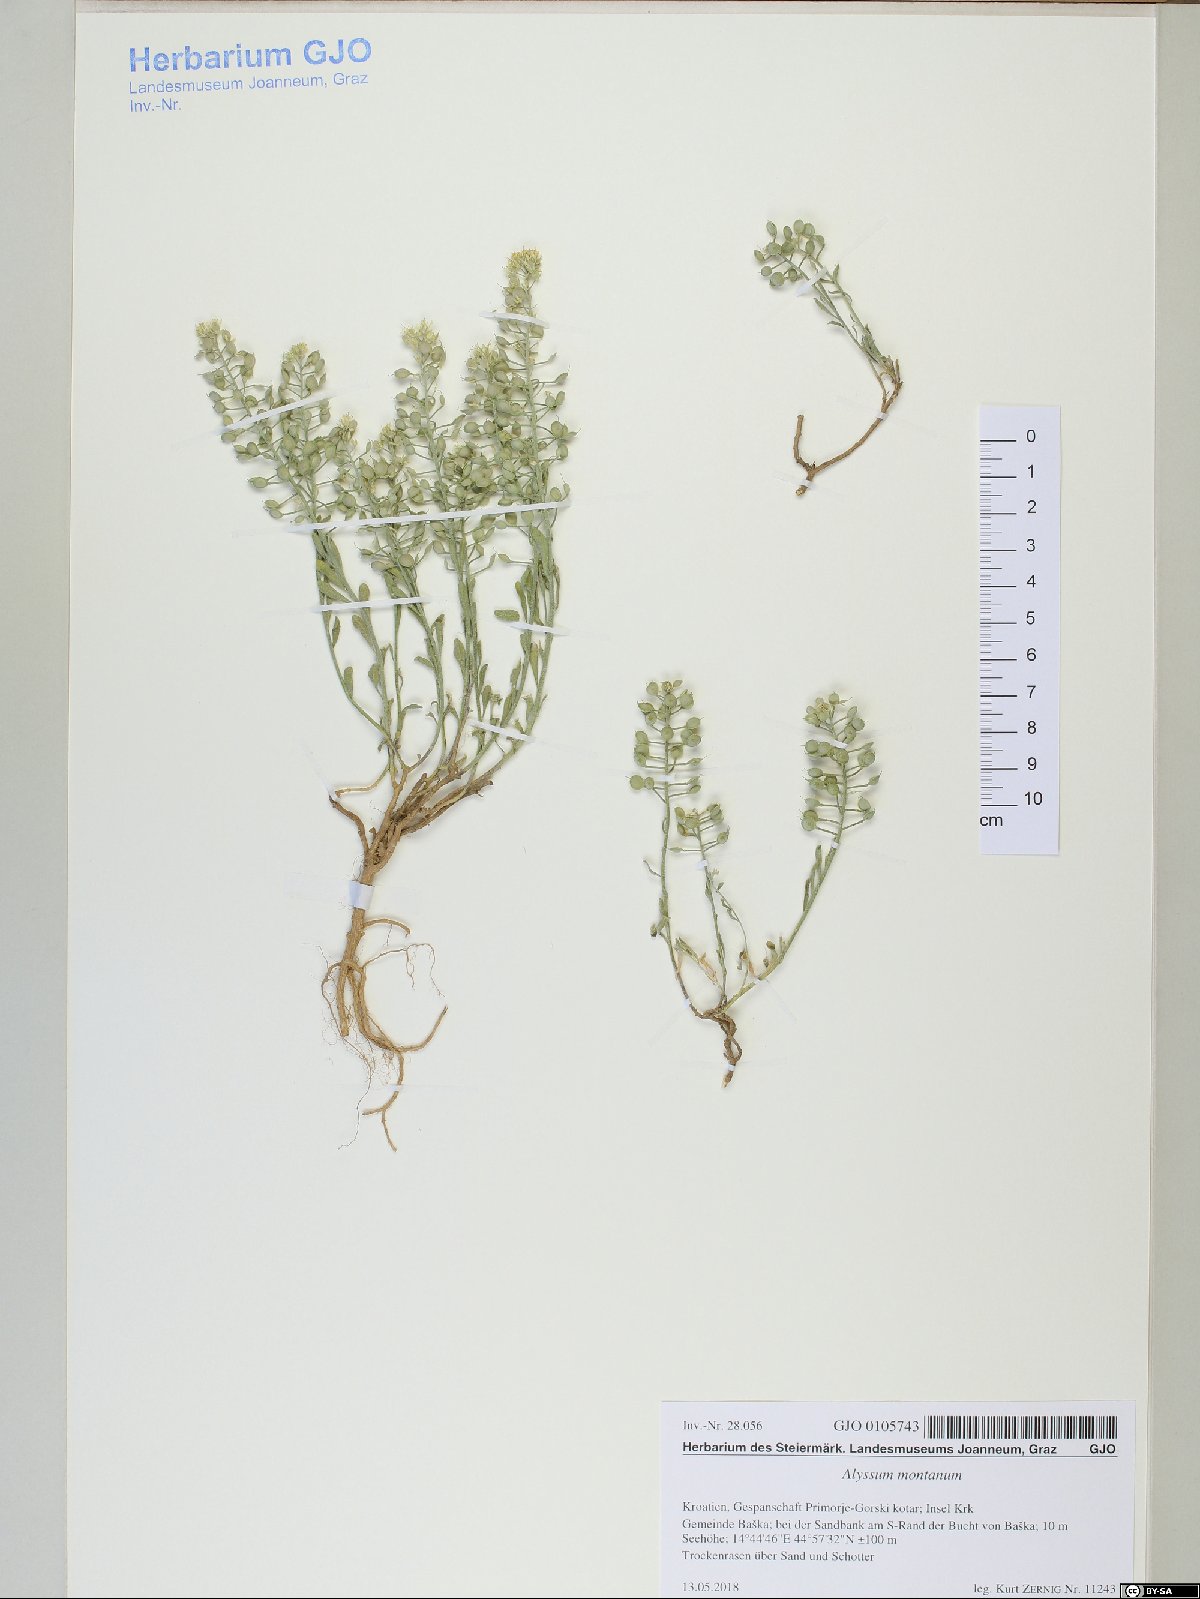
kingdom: Plantae
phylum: Tracheophyta
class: Magnoliopsida
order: Brassicales
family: Brassicaceae
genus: Alyssum
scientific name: Alyssum austrodalmaticum
